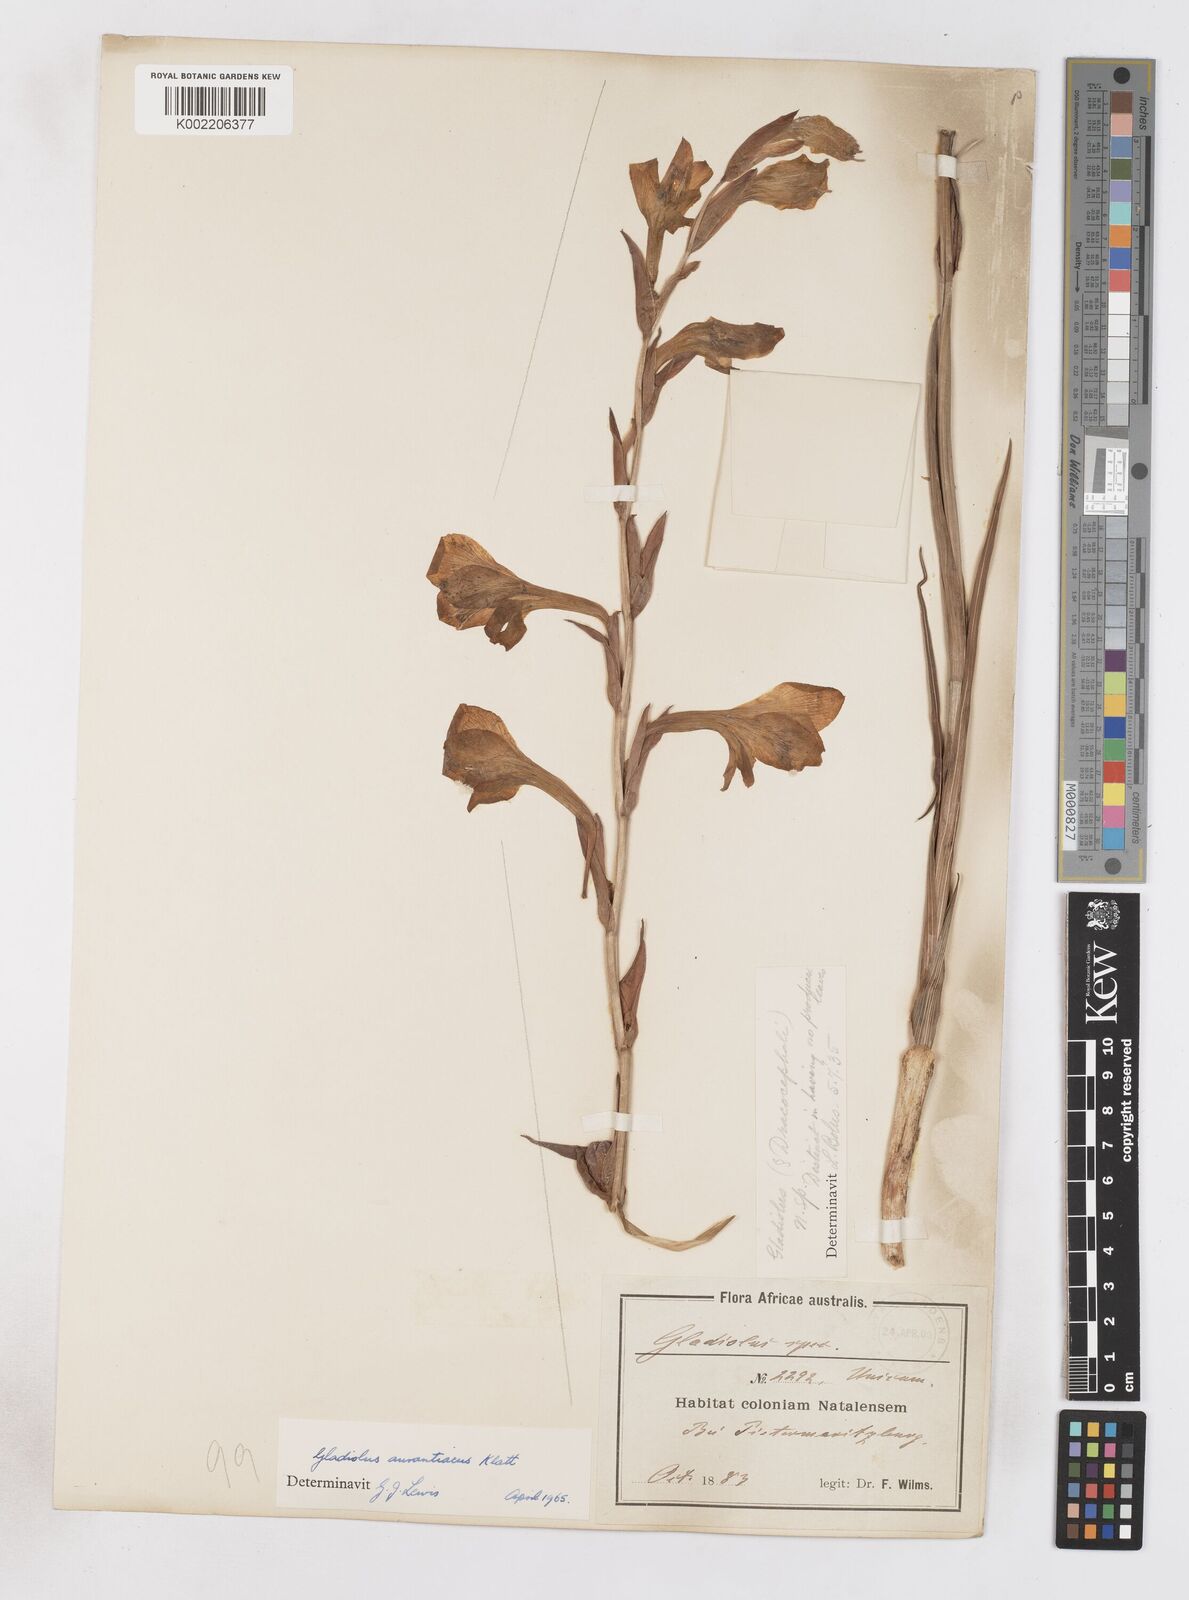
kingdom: Plantae
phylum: Tracheophyta
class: Liliopsida
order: Asparagales
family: Iridaceae
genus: Gladiolus
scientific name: Gladiolus aurantiacus
